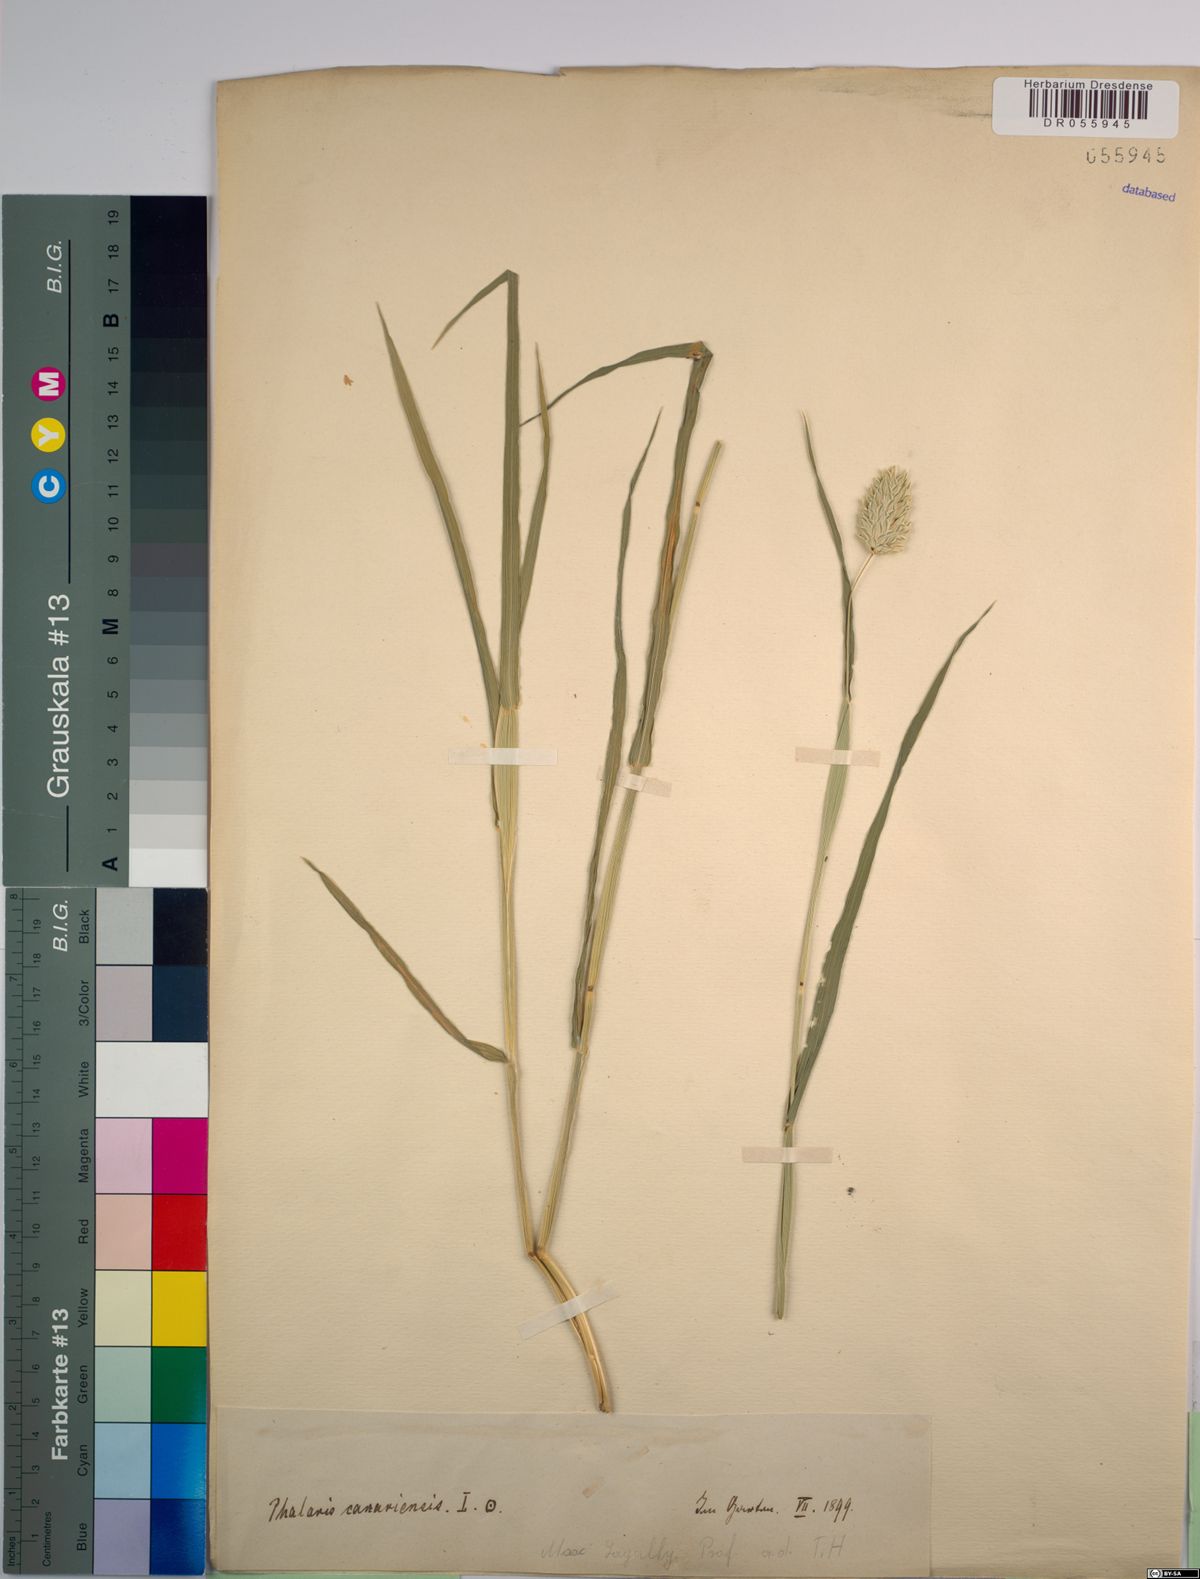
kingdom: Plantae
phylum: Tracheophyta
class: Liliopsida
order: Poales
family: Poaceae
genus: Phalaris
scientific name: Phalaris canariensis
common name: Annual canarygrass
